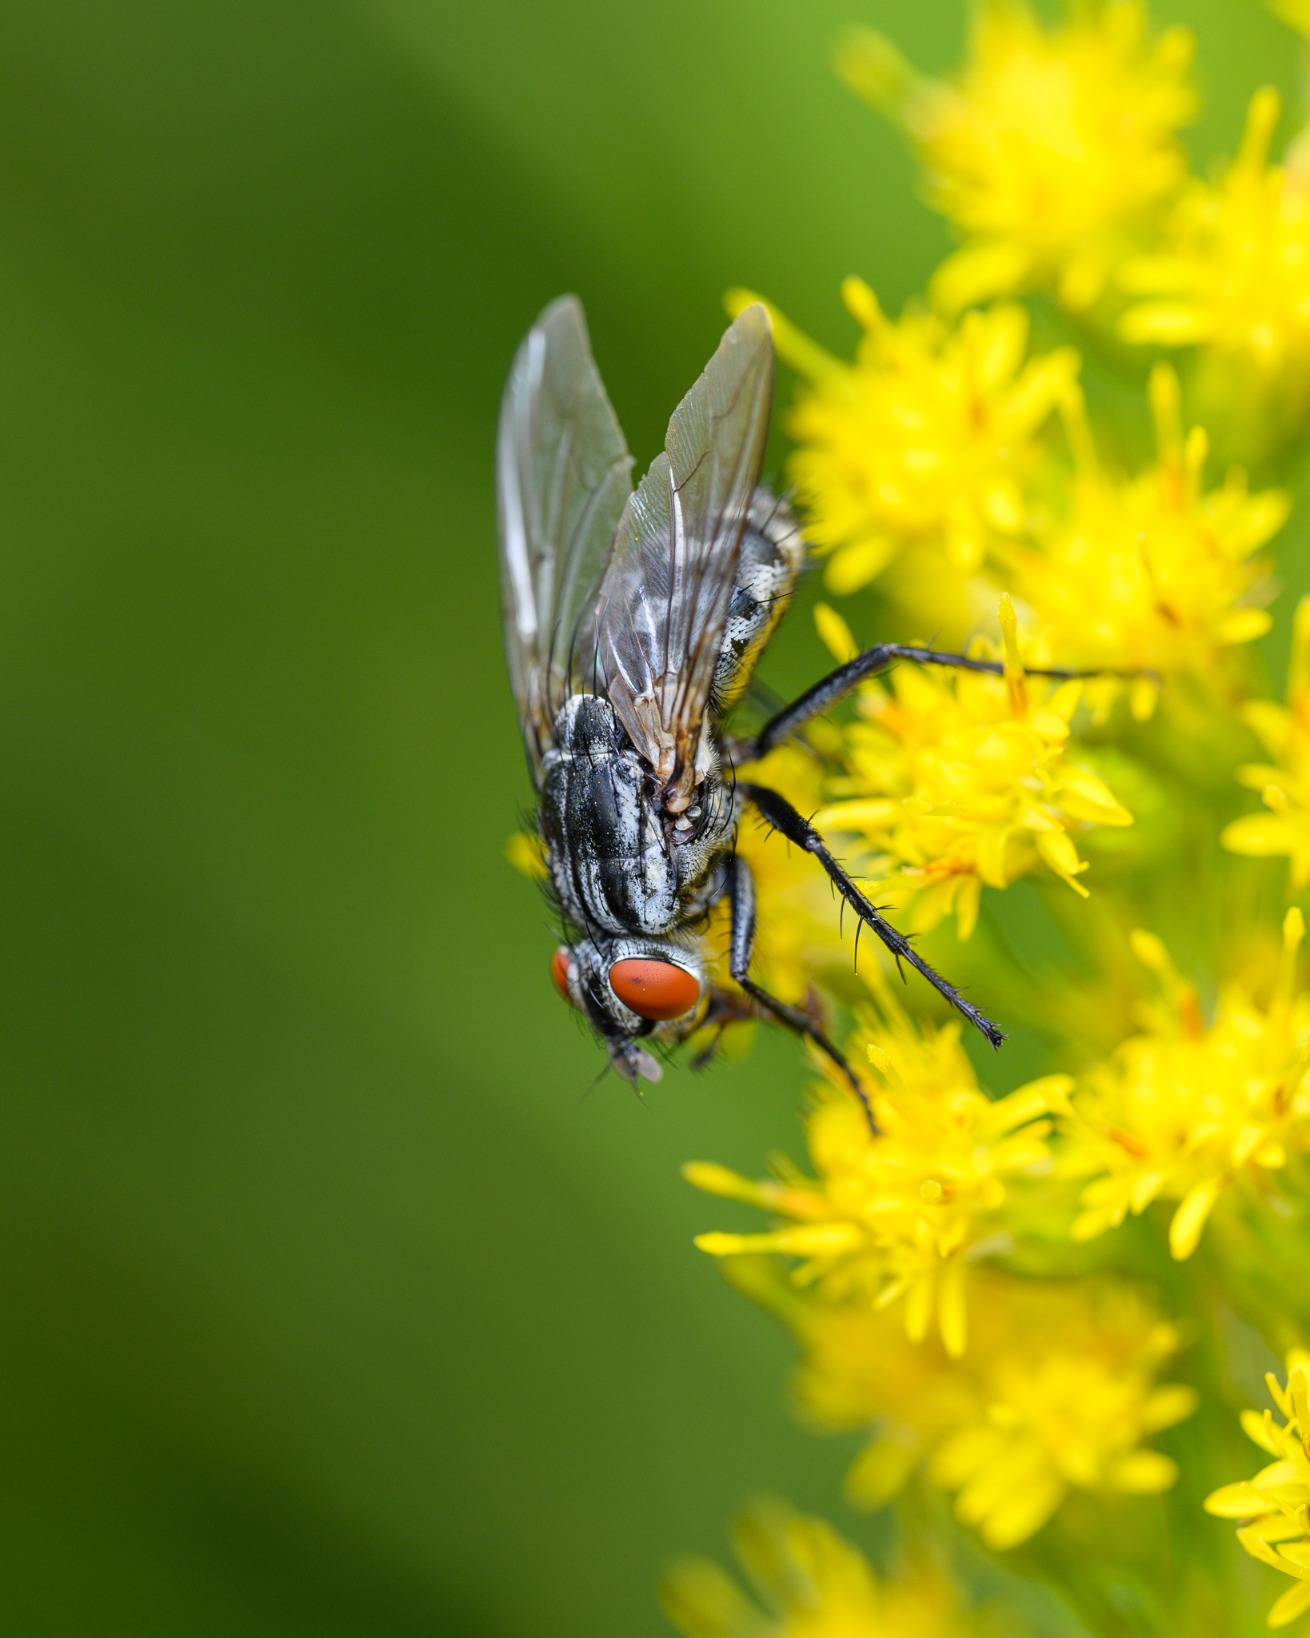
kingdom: Animalia
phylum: Arthropoda
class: Insecta
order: Diptera
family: Sarcophagidae
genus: Sarcophaga
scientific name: Sarcophaga
